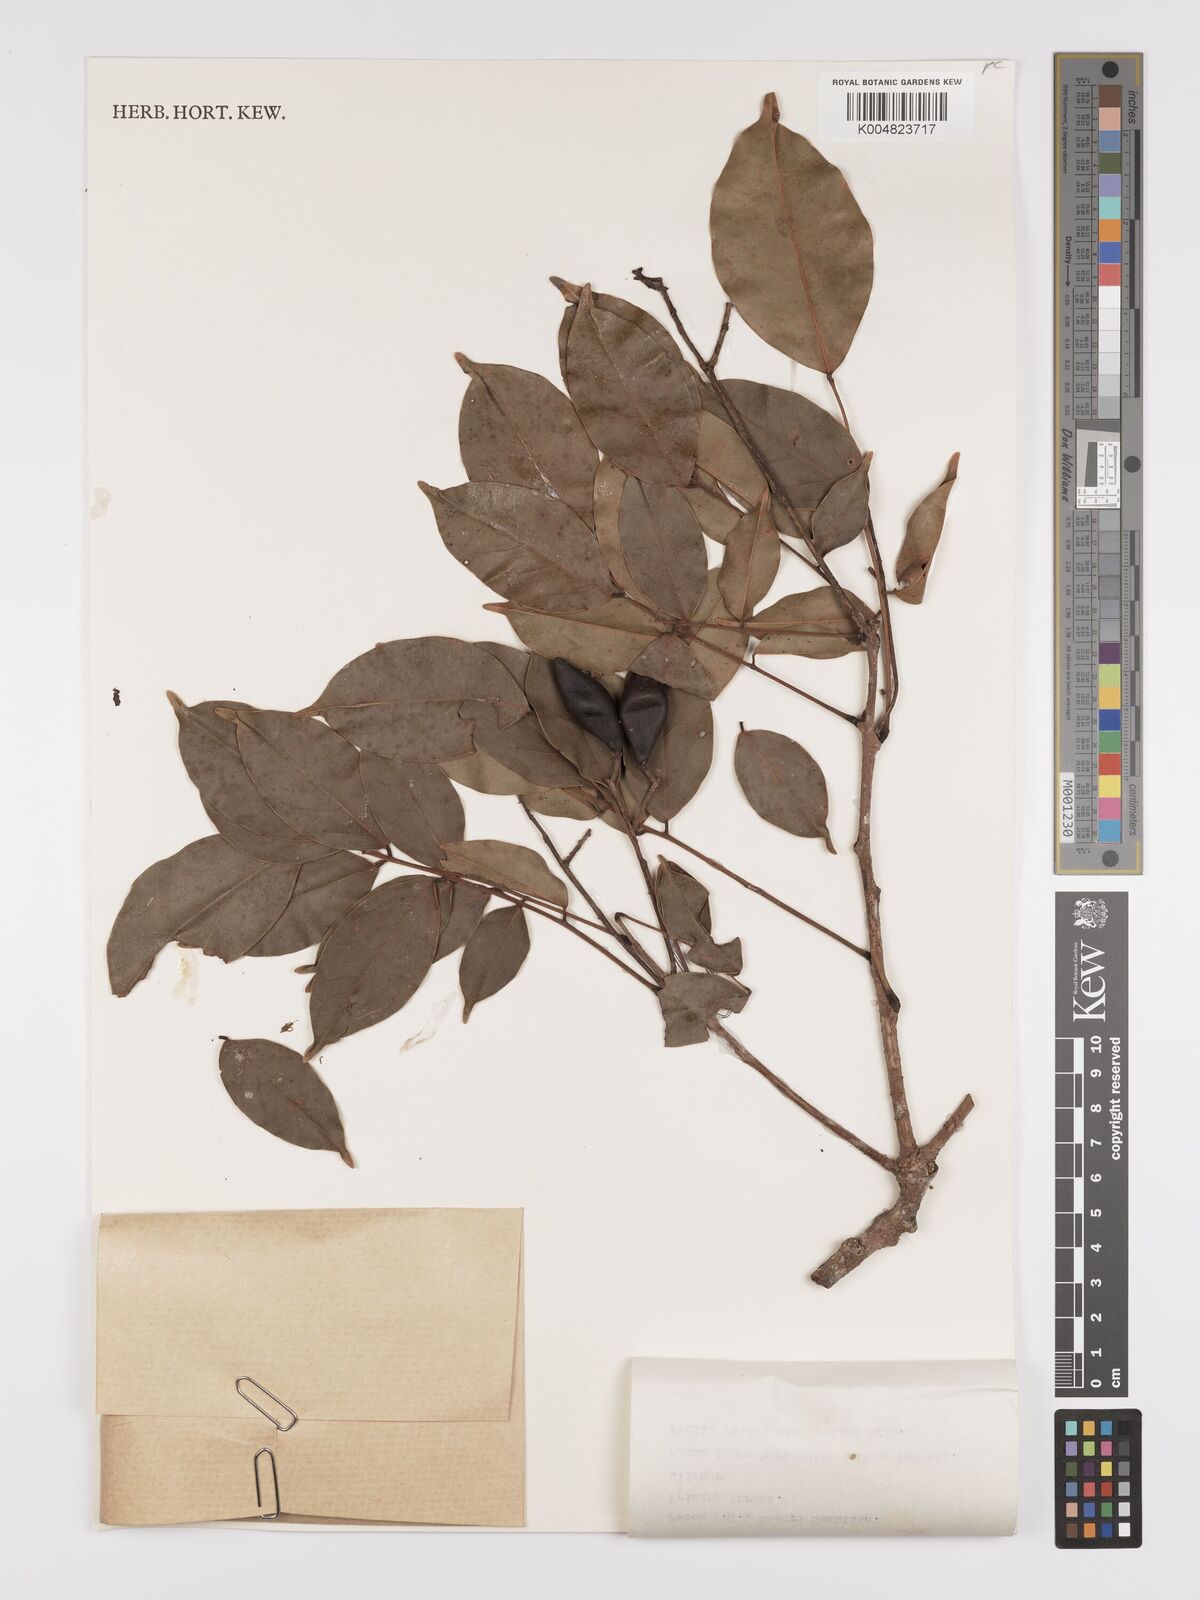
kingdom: Plantae
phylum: Tracheophyta
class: Magnoliopsida
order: Oxalidales
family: Connaraceae
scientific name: Connaraceae
